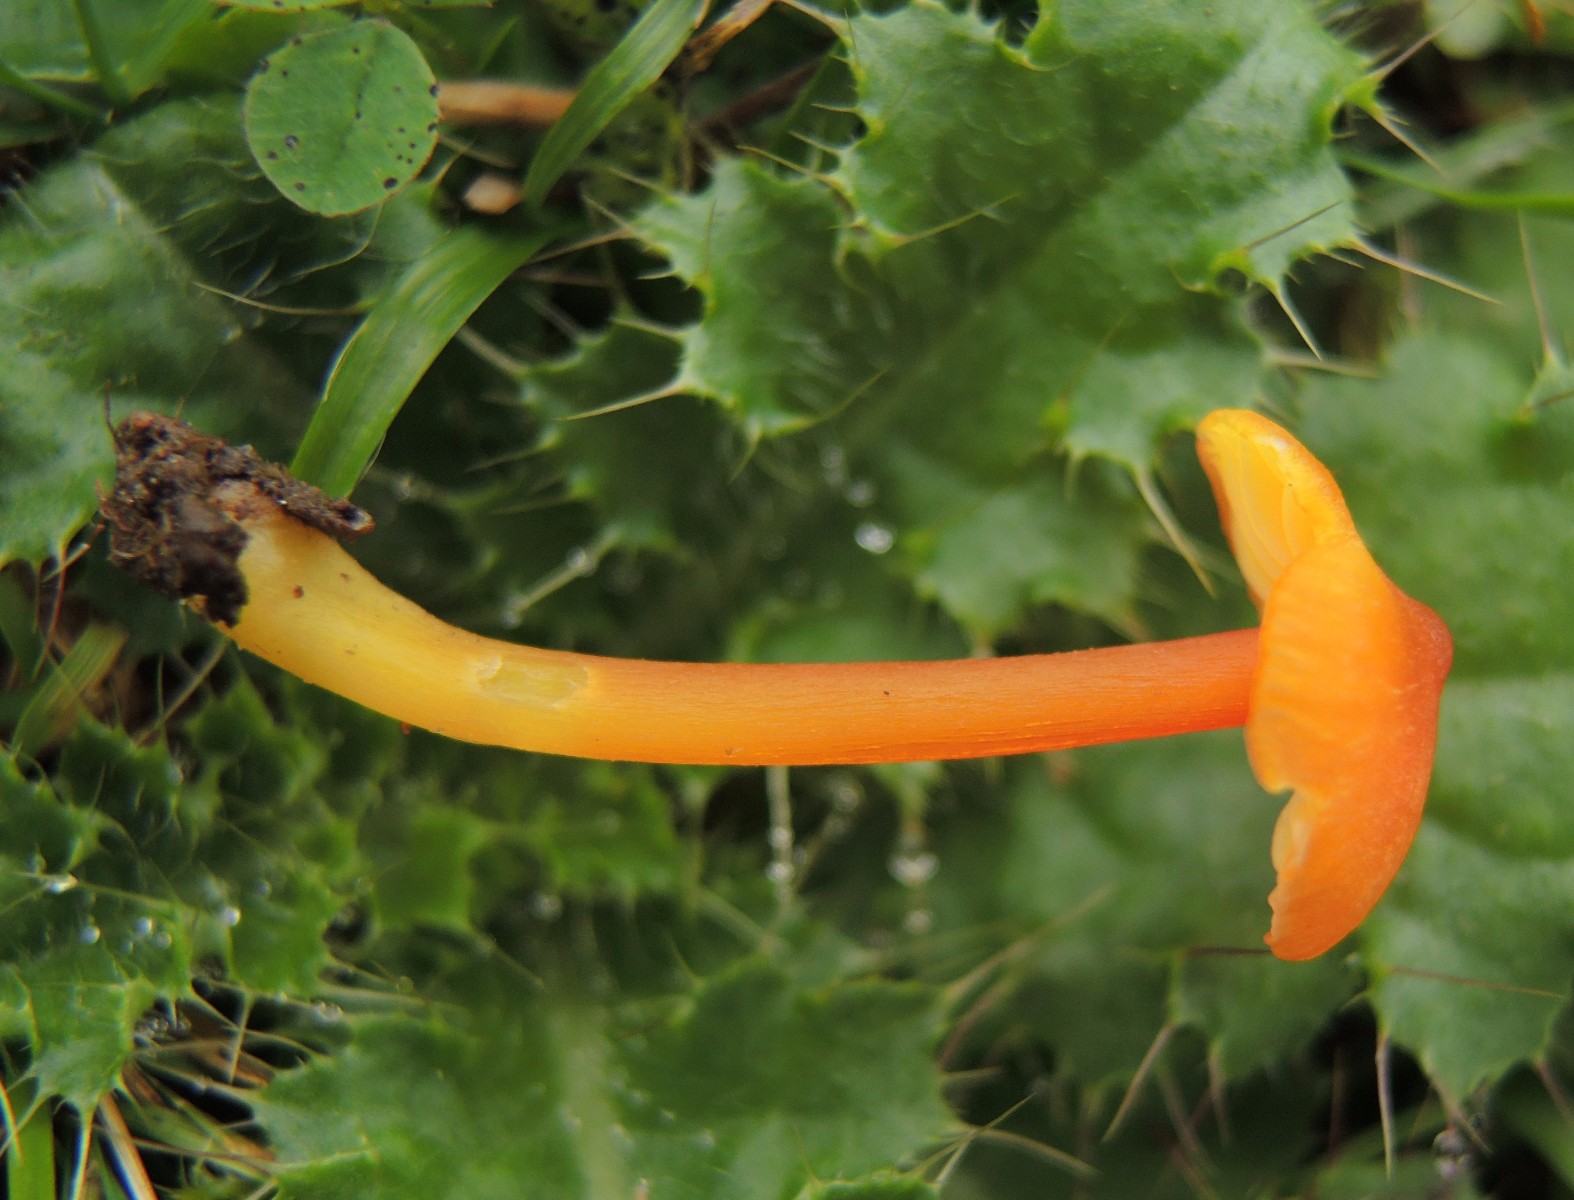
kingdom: Fungi
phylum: Basidiomycota
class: Agaricomycetes
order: Agaricales
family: Hygrophoraceae
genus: Hygrocybe
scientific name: Hygrocybe subpapillata
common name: papil-vokshat
